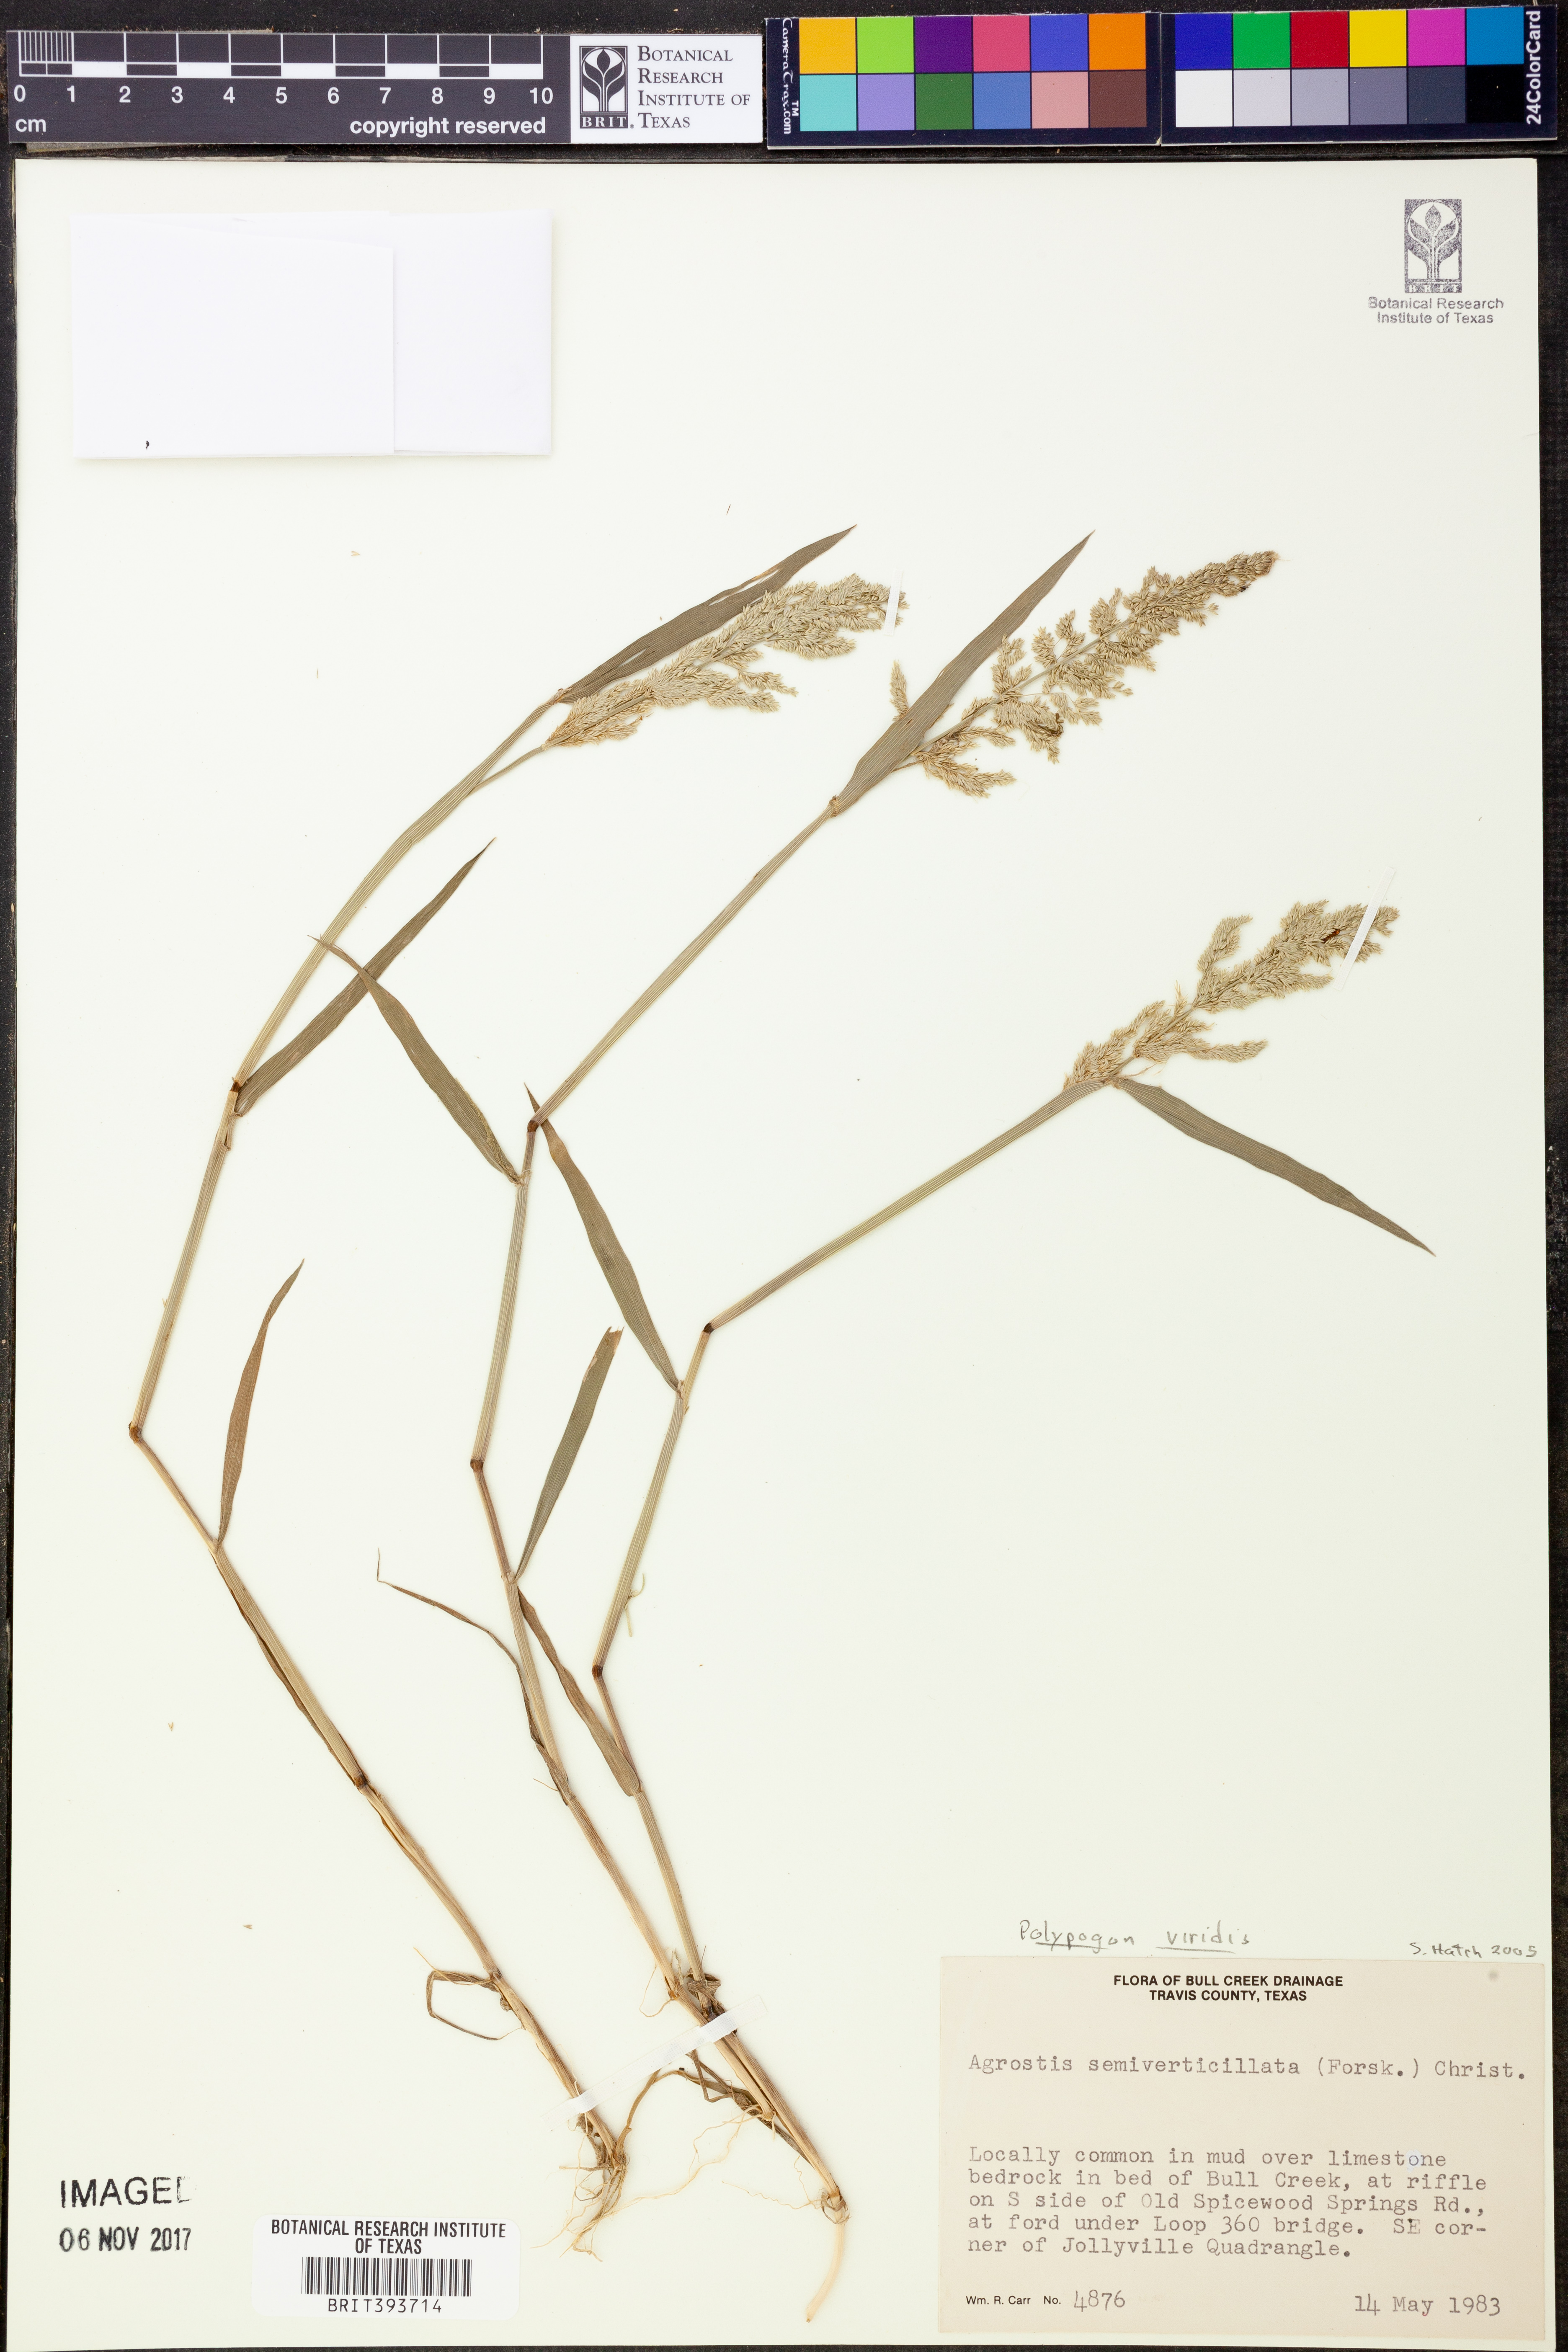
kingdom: Plantae
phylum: Tracheophyta
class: Liliopsida
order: Poales
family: Poaceae
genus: Polypogon
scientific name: Polypogon viridis
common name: Water bent
